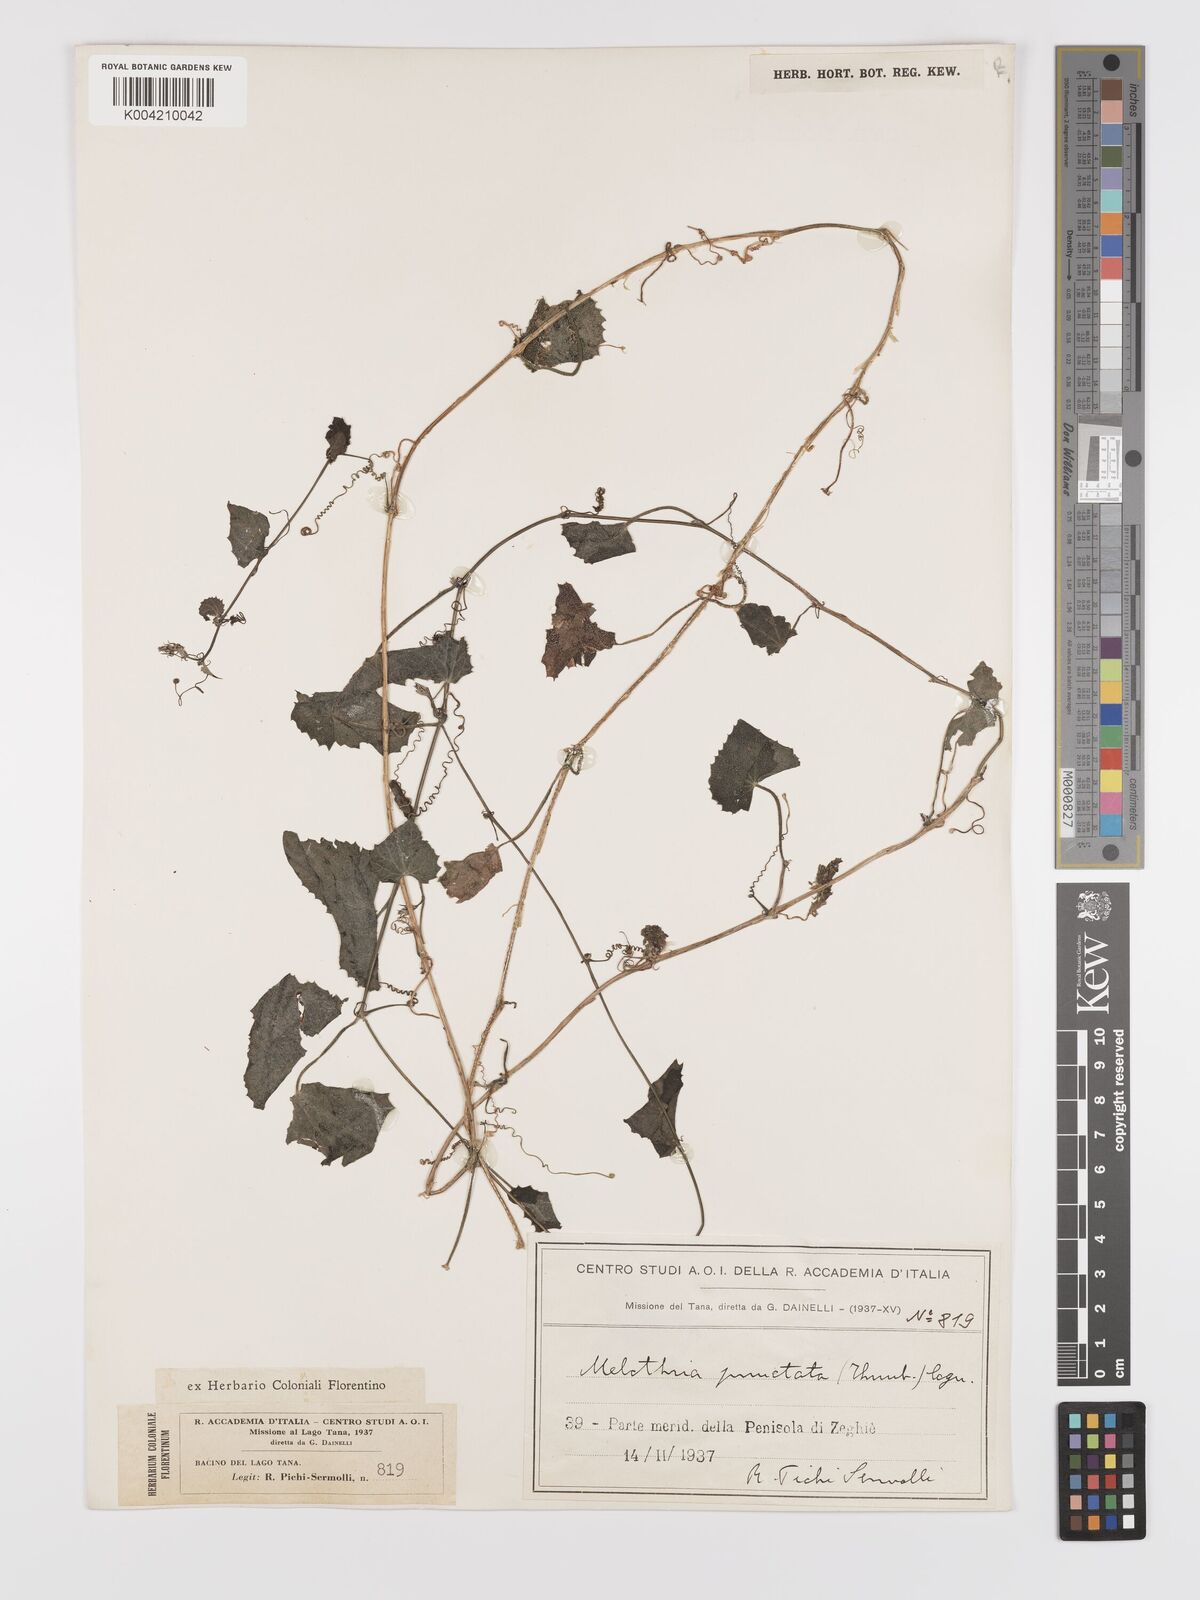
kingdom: Plantae
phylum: Tracheophyta
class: Magnoliopsida
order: Cucurbitales
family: Cucurbitaceae
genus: Zehneria
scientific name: Zehneria scabra
